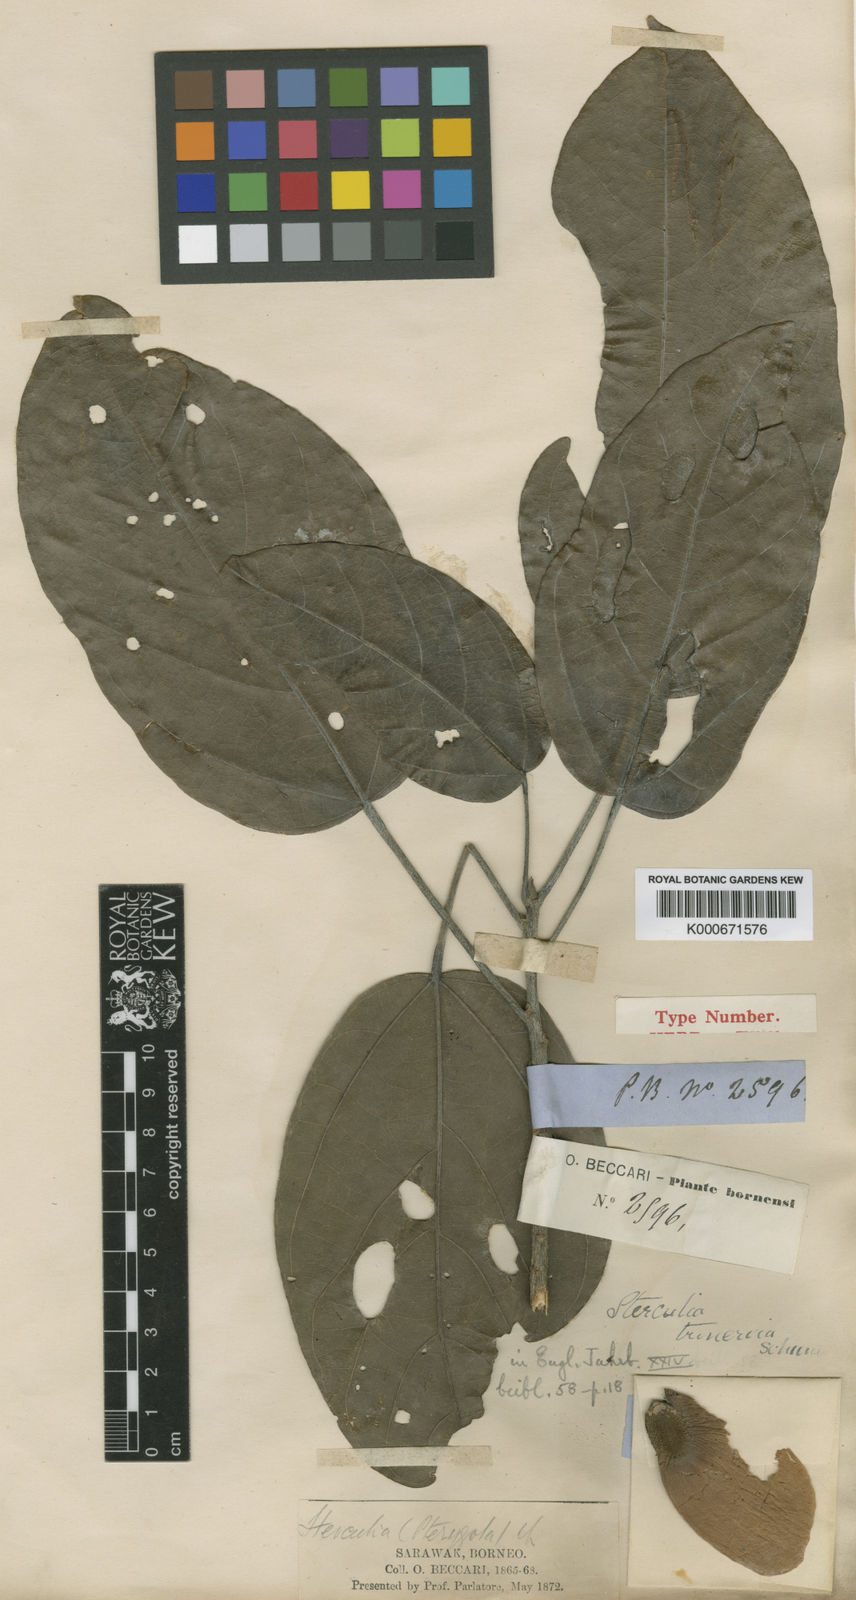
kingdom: Plantae
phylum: Tracheophyta
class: Magnoliopsida
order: Malvales
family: Malvaceae
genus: Pterygota
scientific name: Pterygota trinervia
